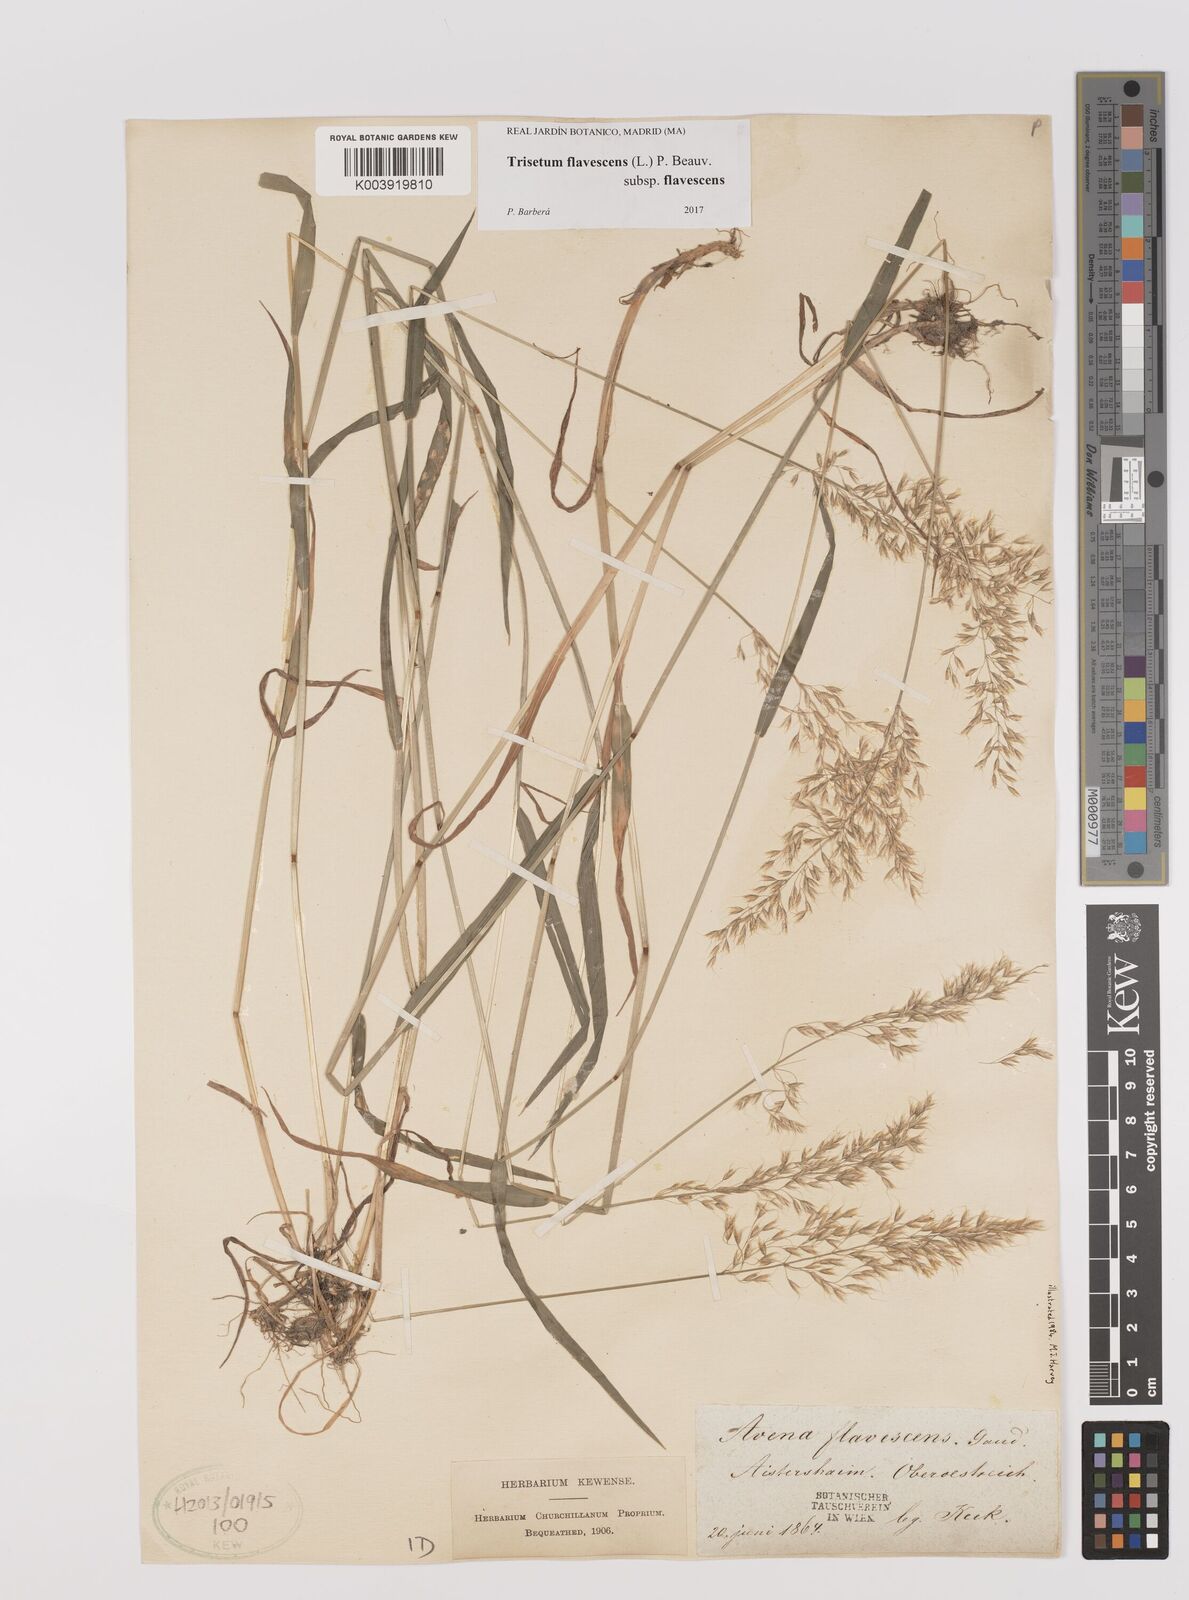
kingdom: Plantae
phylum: Tracheophyta
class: Liliopsida
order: Poales
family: Poaceae
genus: Trisetum
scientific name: Trisetum flavescens
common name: Yellow oat-grass
